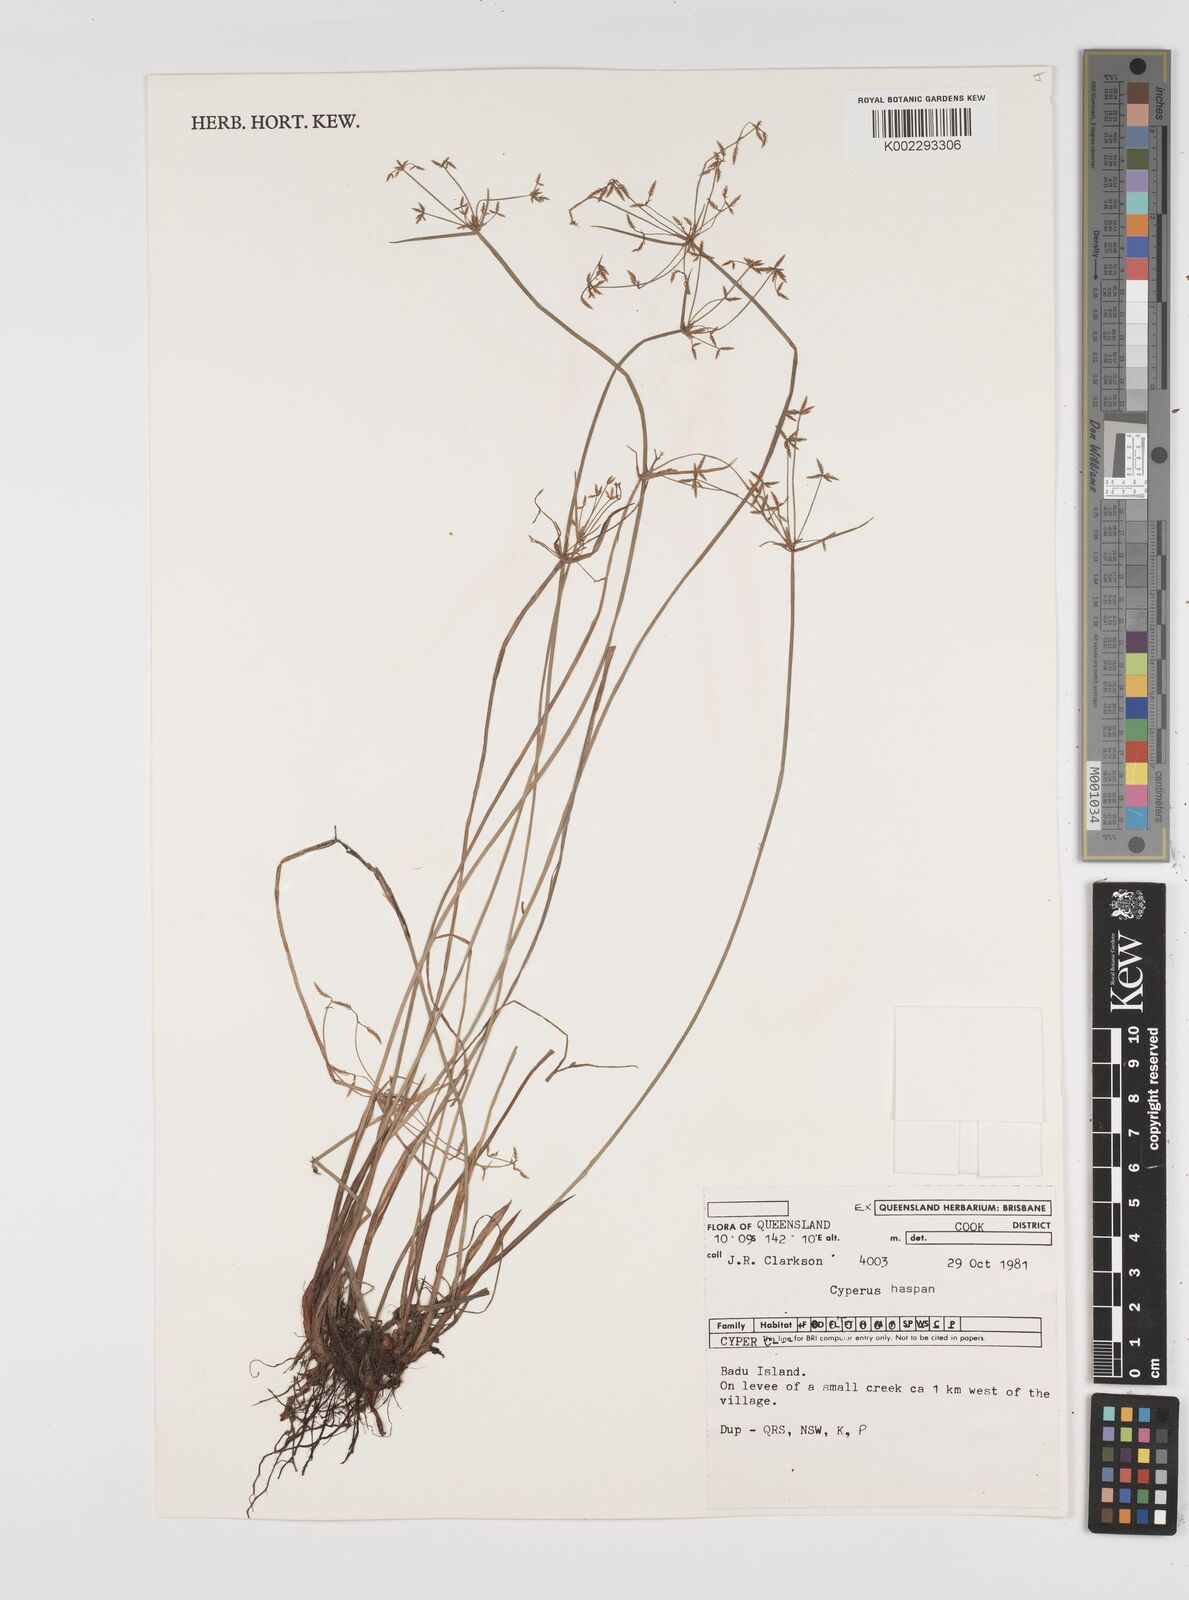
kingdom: Plantae
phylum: Tracheophyta
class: Liliopsida
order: Poales
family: Cyperaceae
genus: Cyperus
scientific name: Cyperus haspan
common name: Haspan flatsedge
